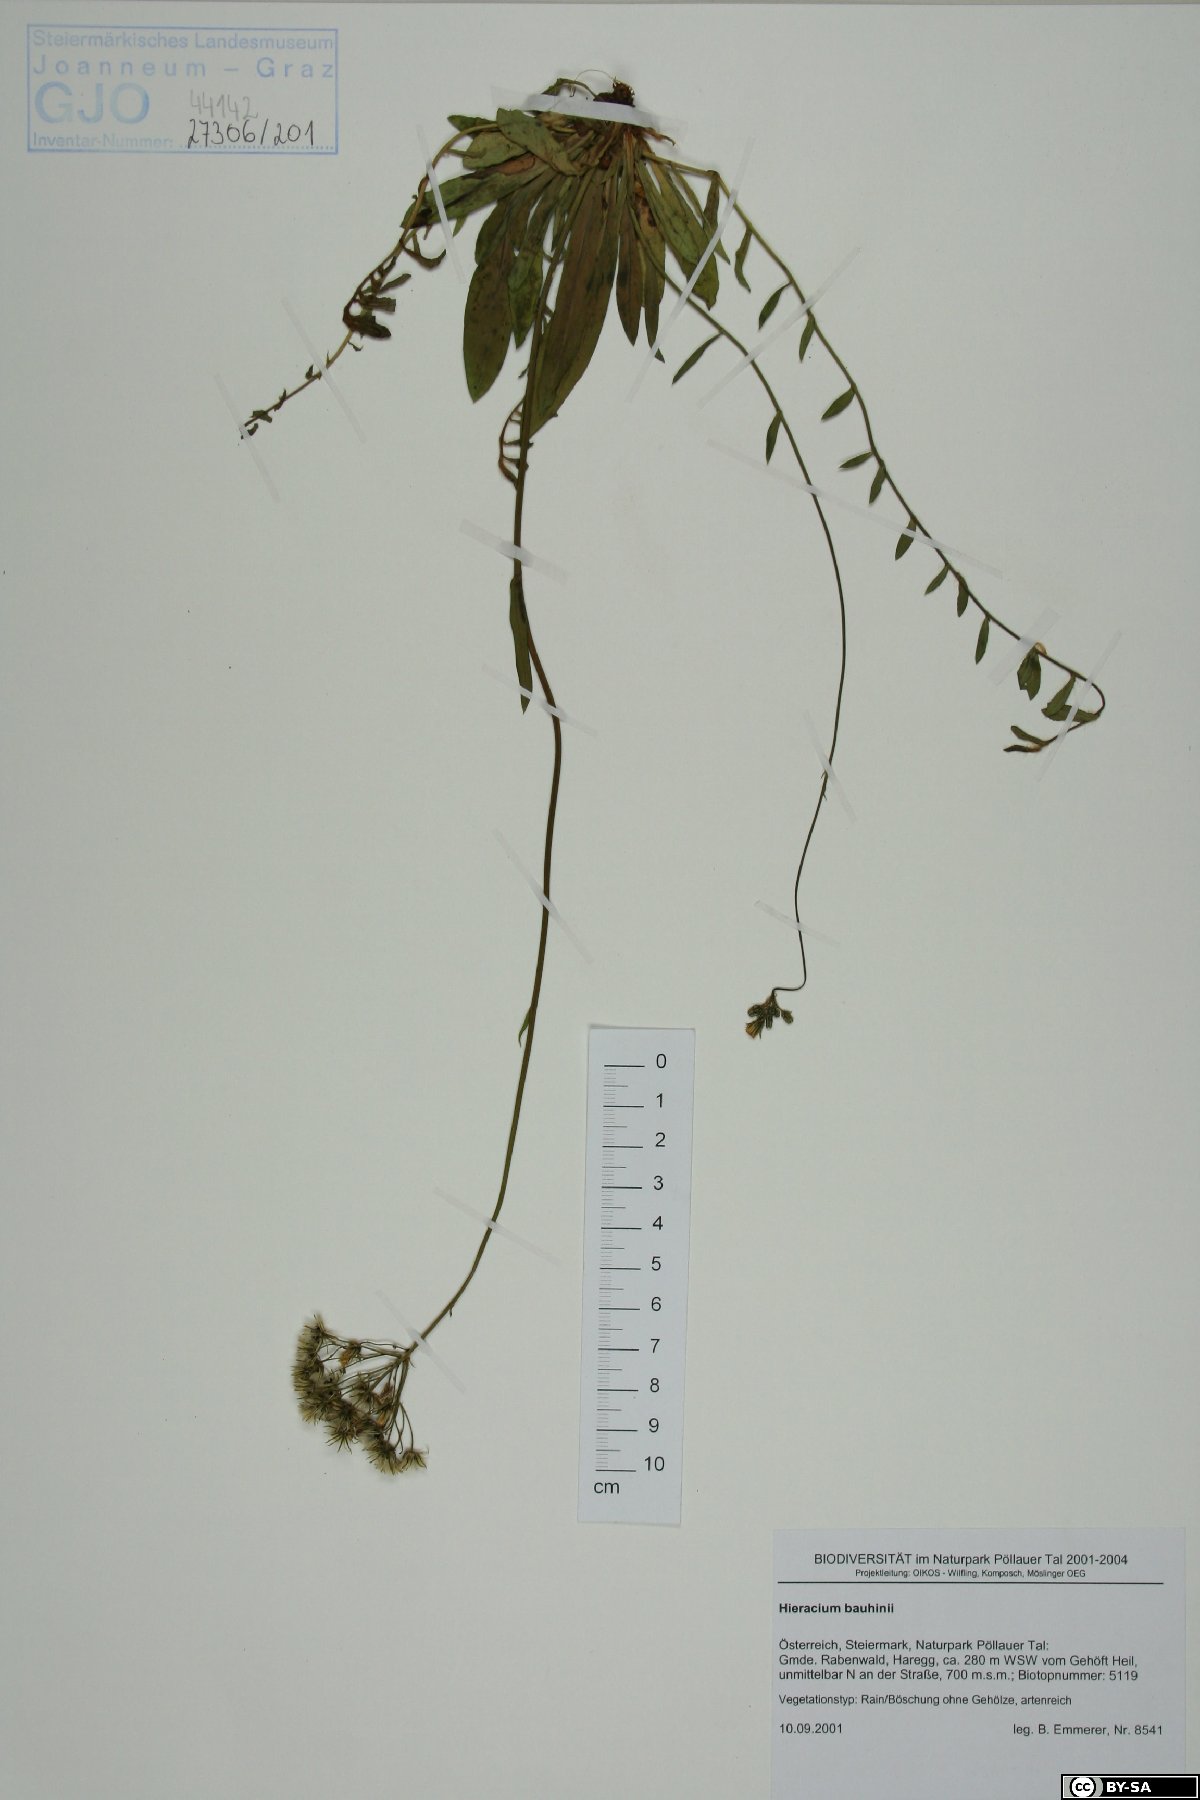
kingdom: Plantae
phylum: Tracheophyta
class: Magnoliopsida
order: Asterales
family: Asteraceae
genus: Pilosella
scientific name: Pilosella bauhini
